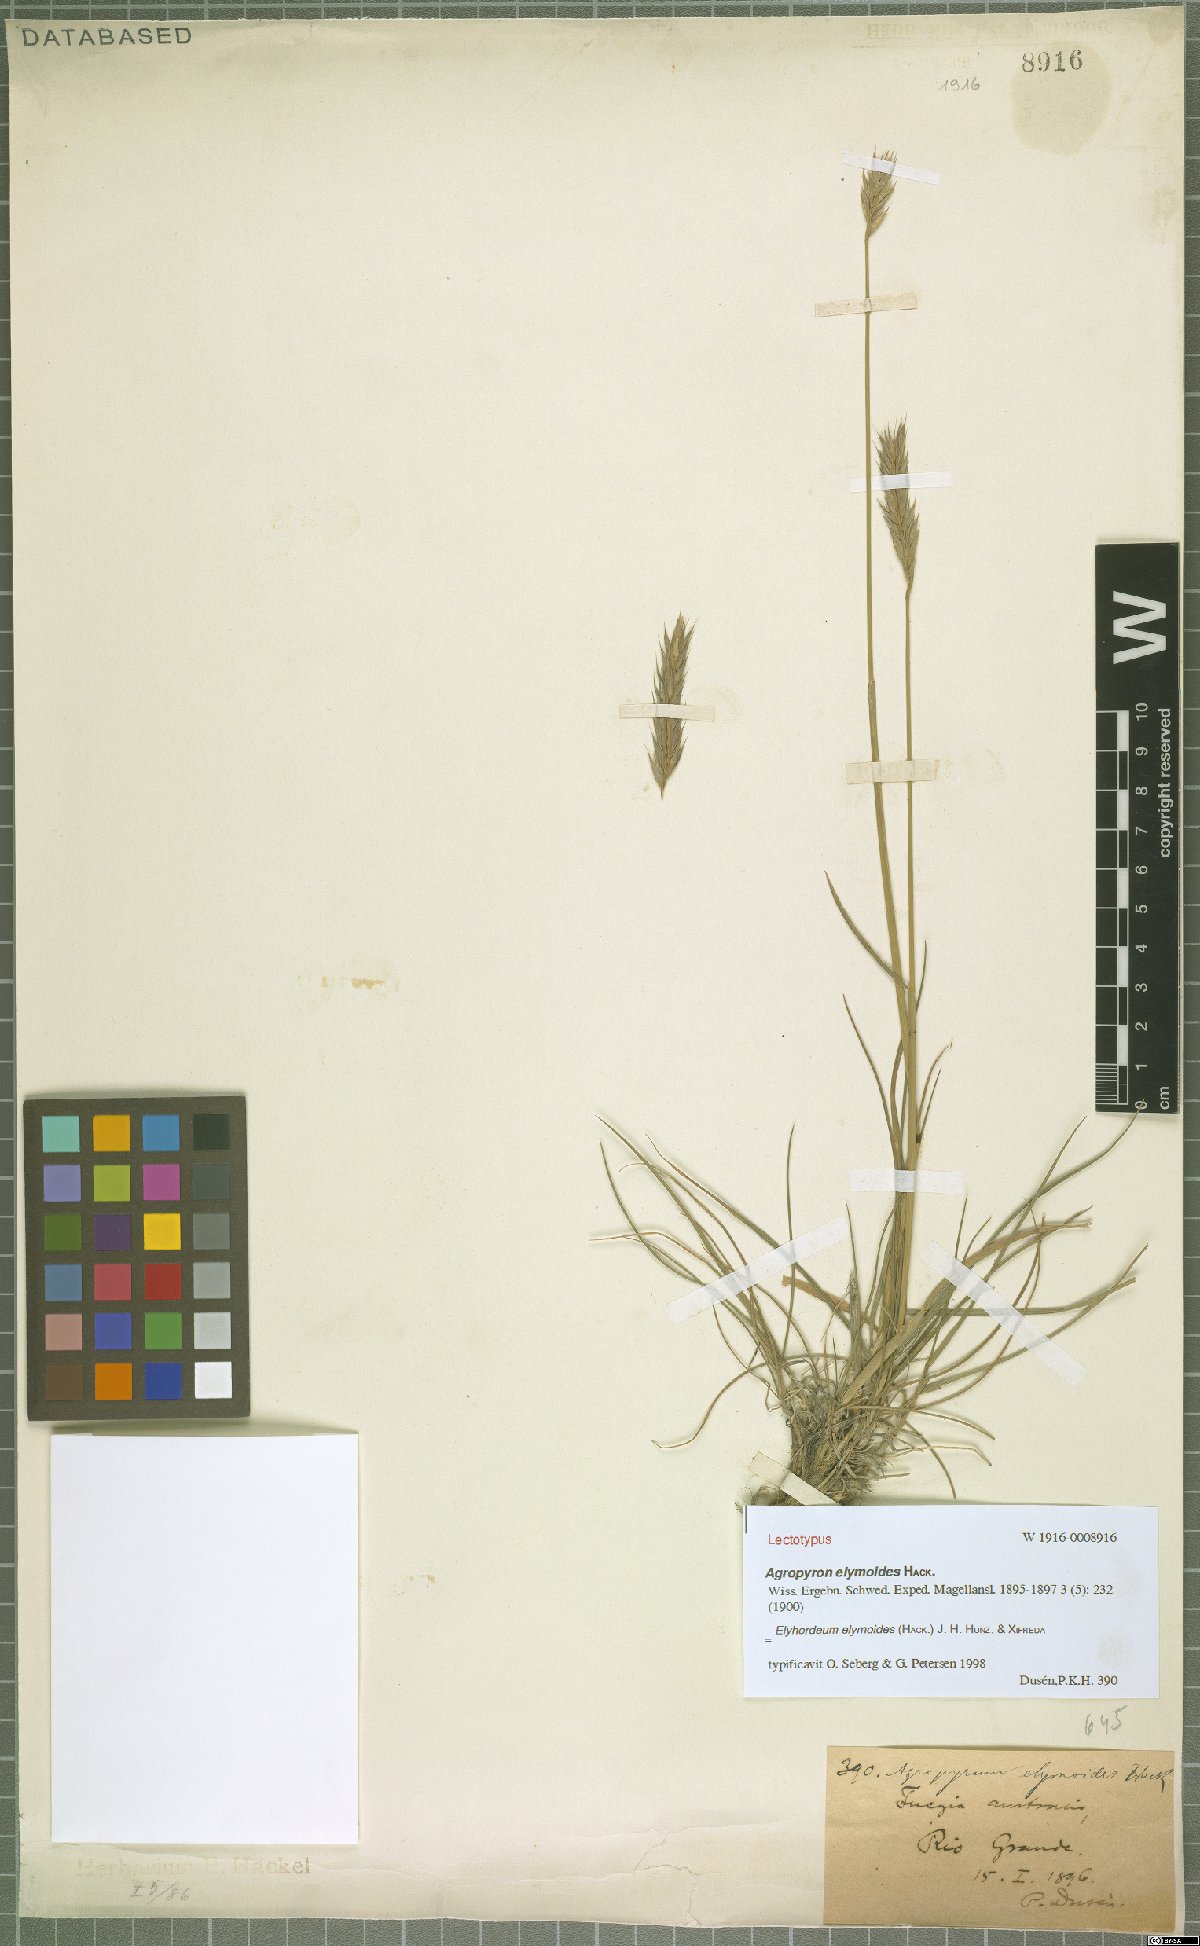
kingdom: Plantae
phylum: Tracheophyta
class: Liliopsida
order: Poales
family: Poaceae
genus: Elyhordeum
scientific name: Elyhordeum elymoides
